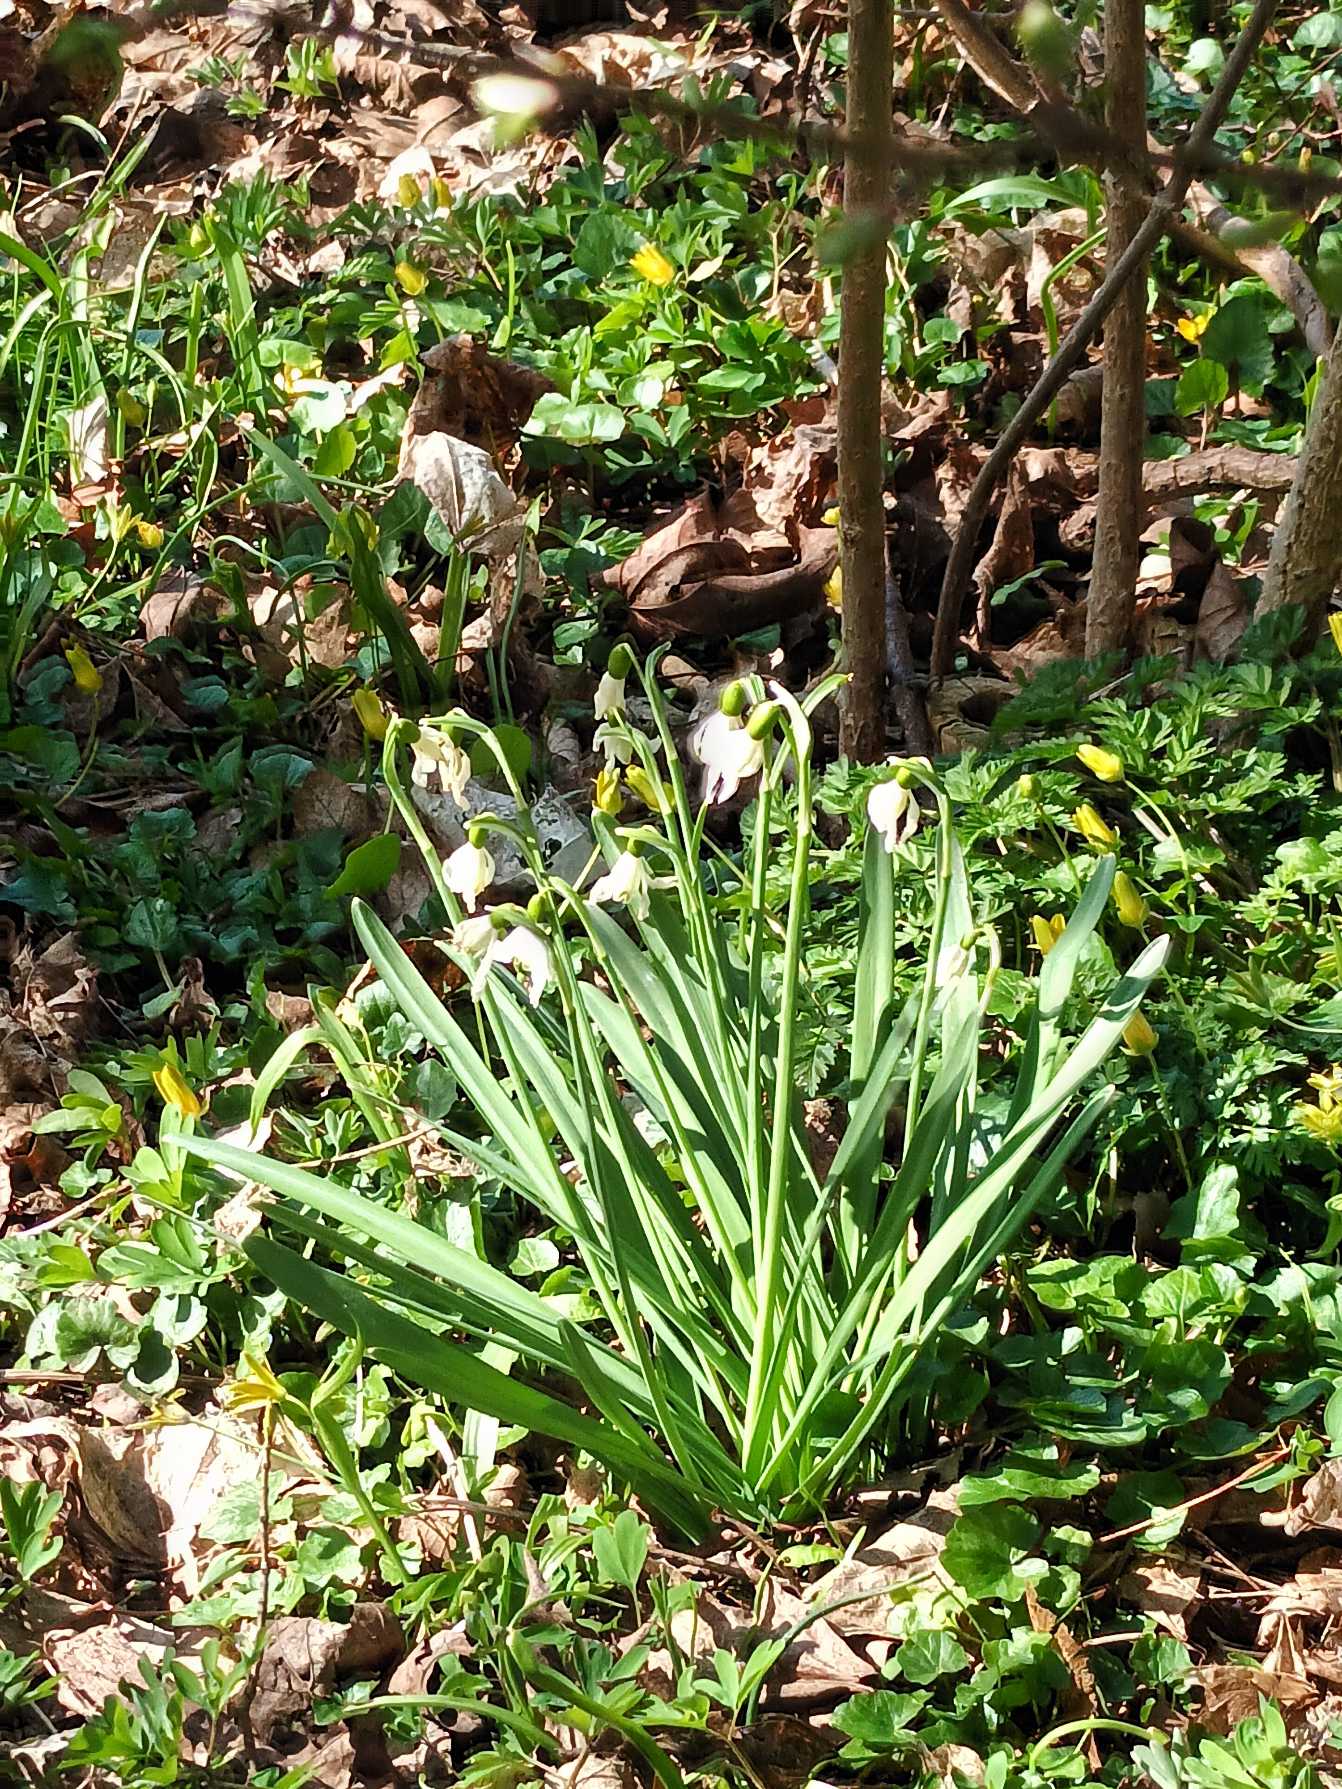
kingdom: Plantae
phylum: Tracheophyta
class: Liliopsida
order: Asparagales
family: Amaryllidaceae
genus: Galanthus
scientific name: Galanthus nivalis
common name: Vintergæk
